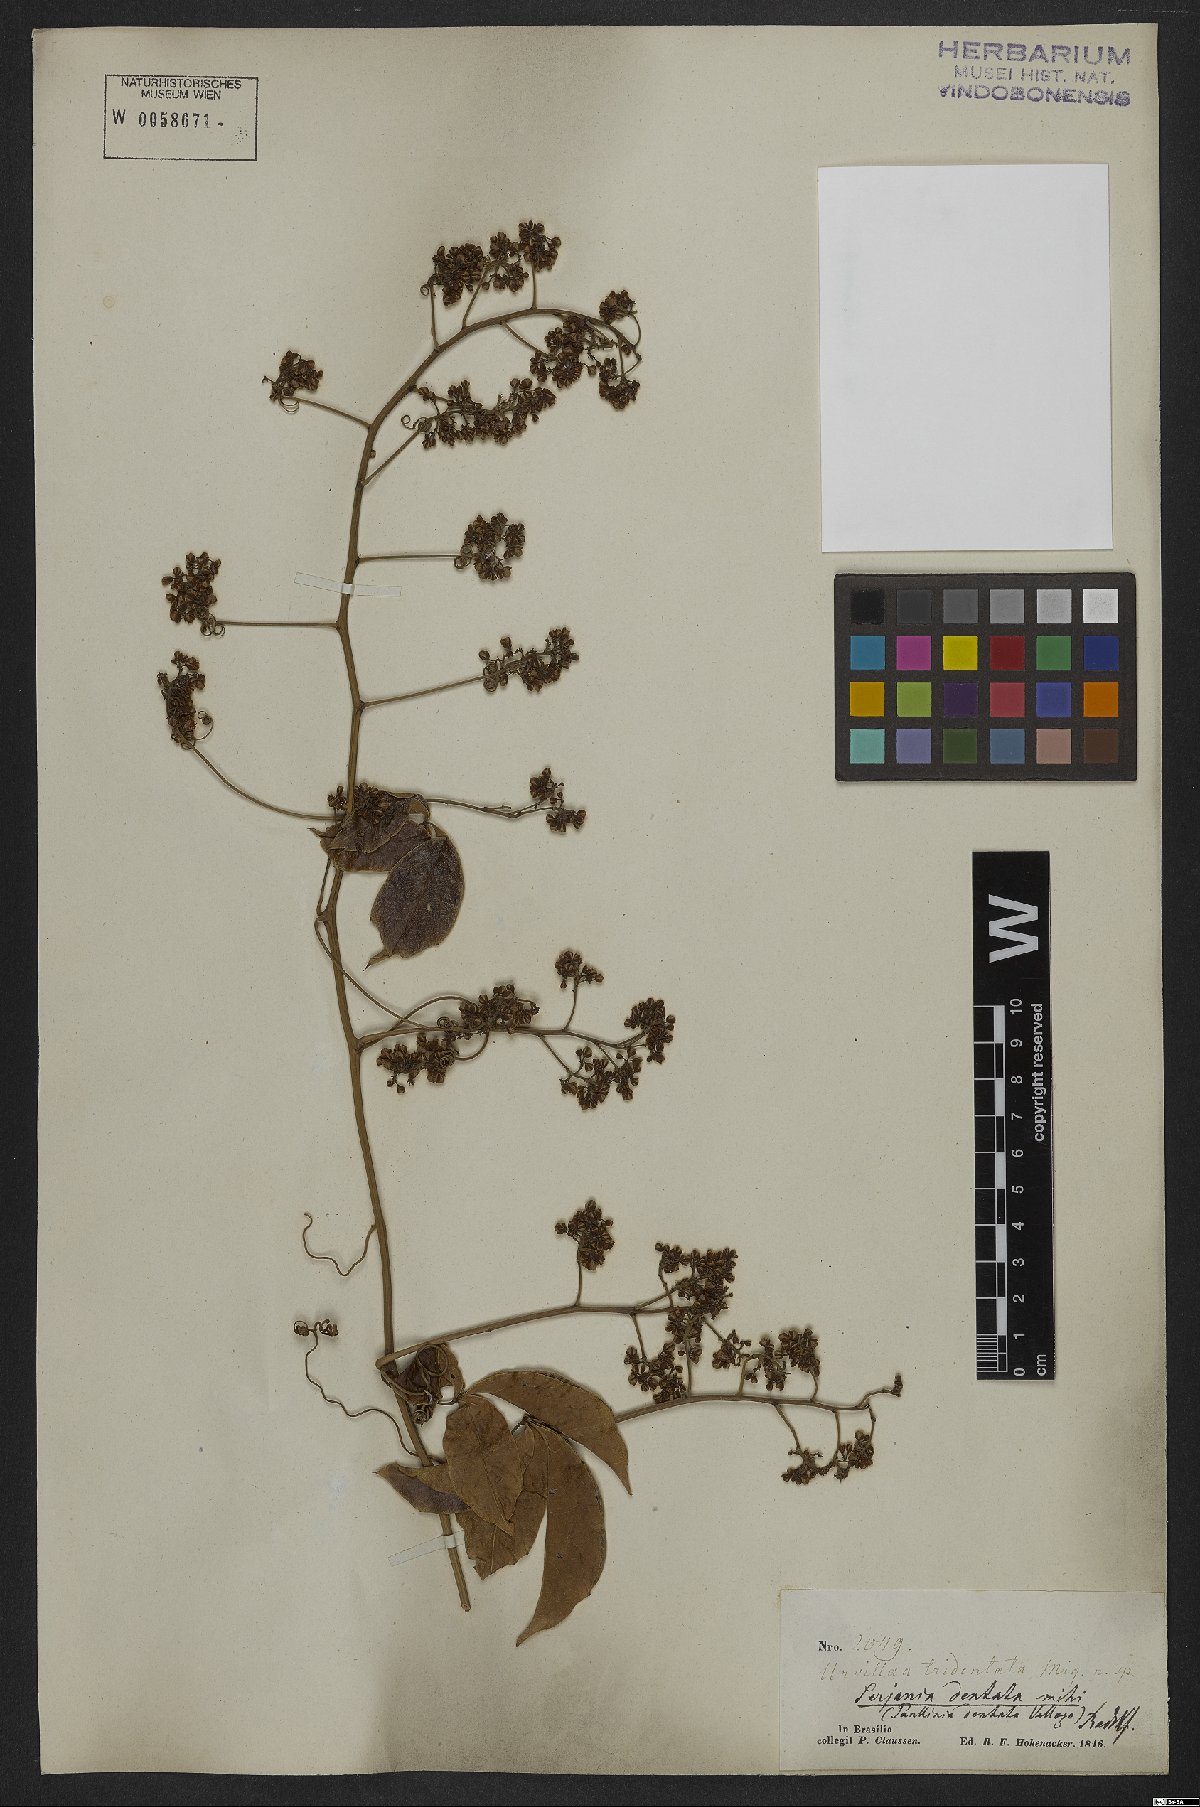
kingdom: Plantae
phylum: Tracheophyta
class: Magnoliopsida
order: Sapindales
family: Sapindaceae
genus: Serjania
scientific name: Serjania dentata
